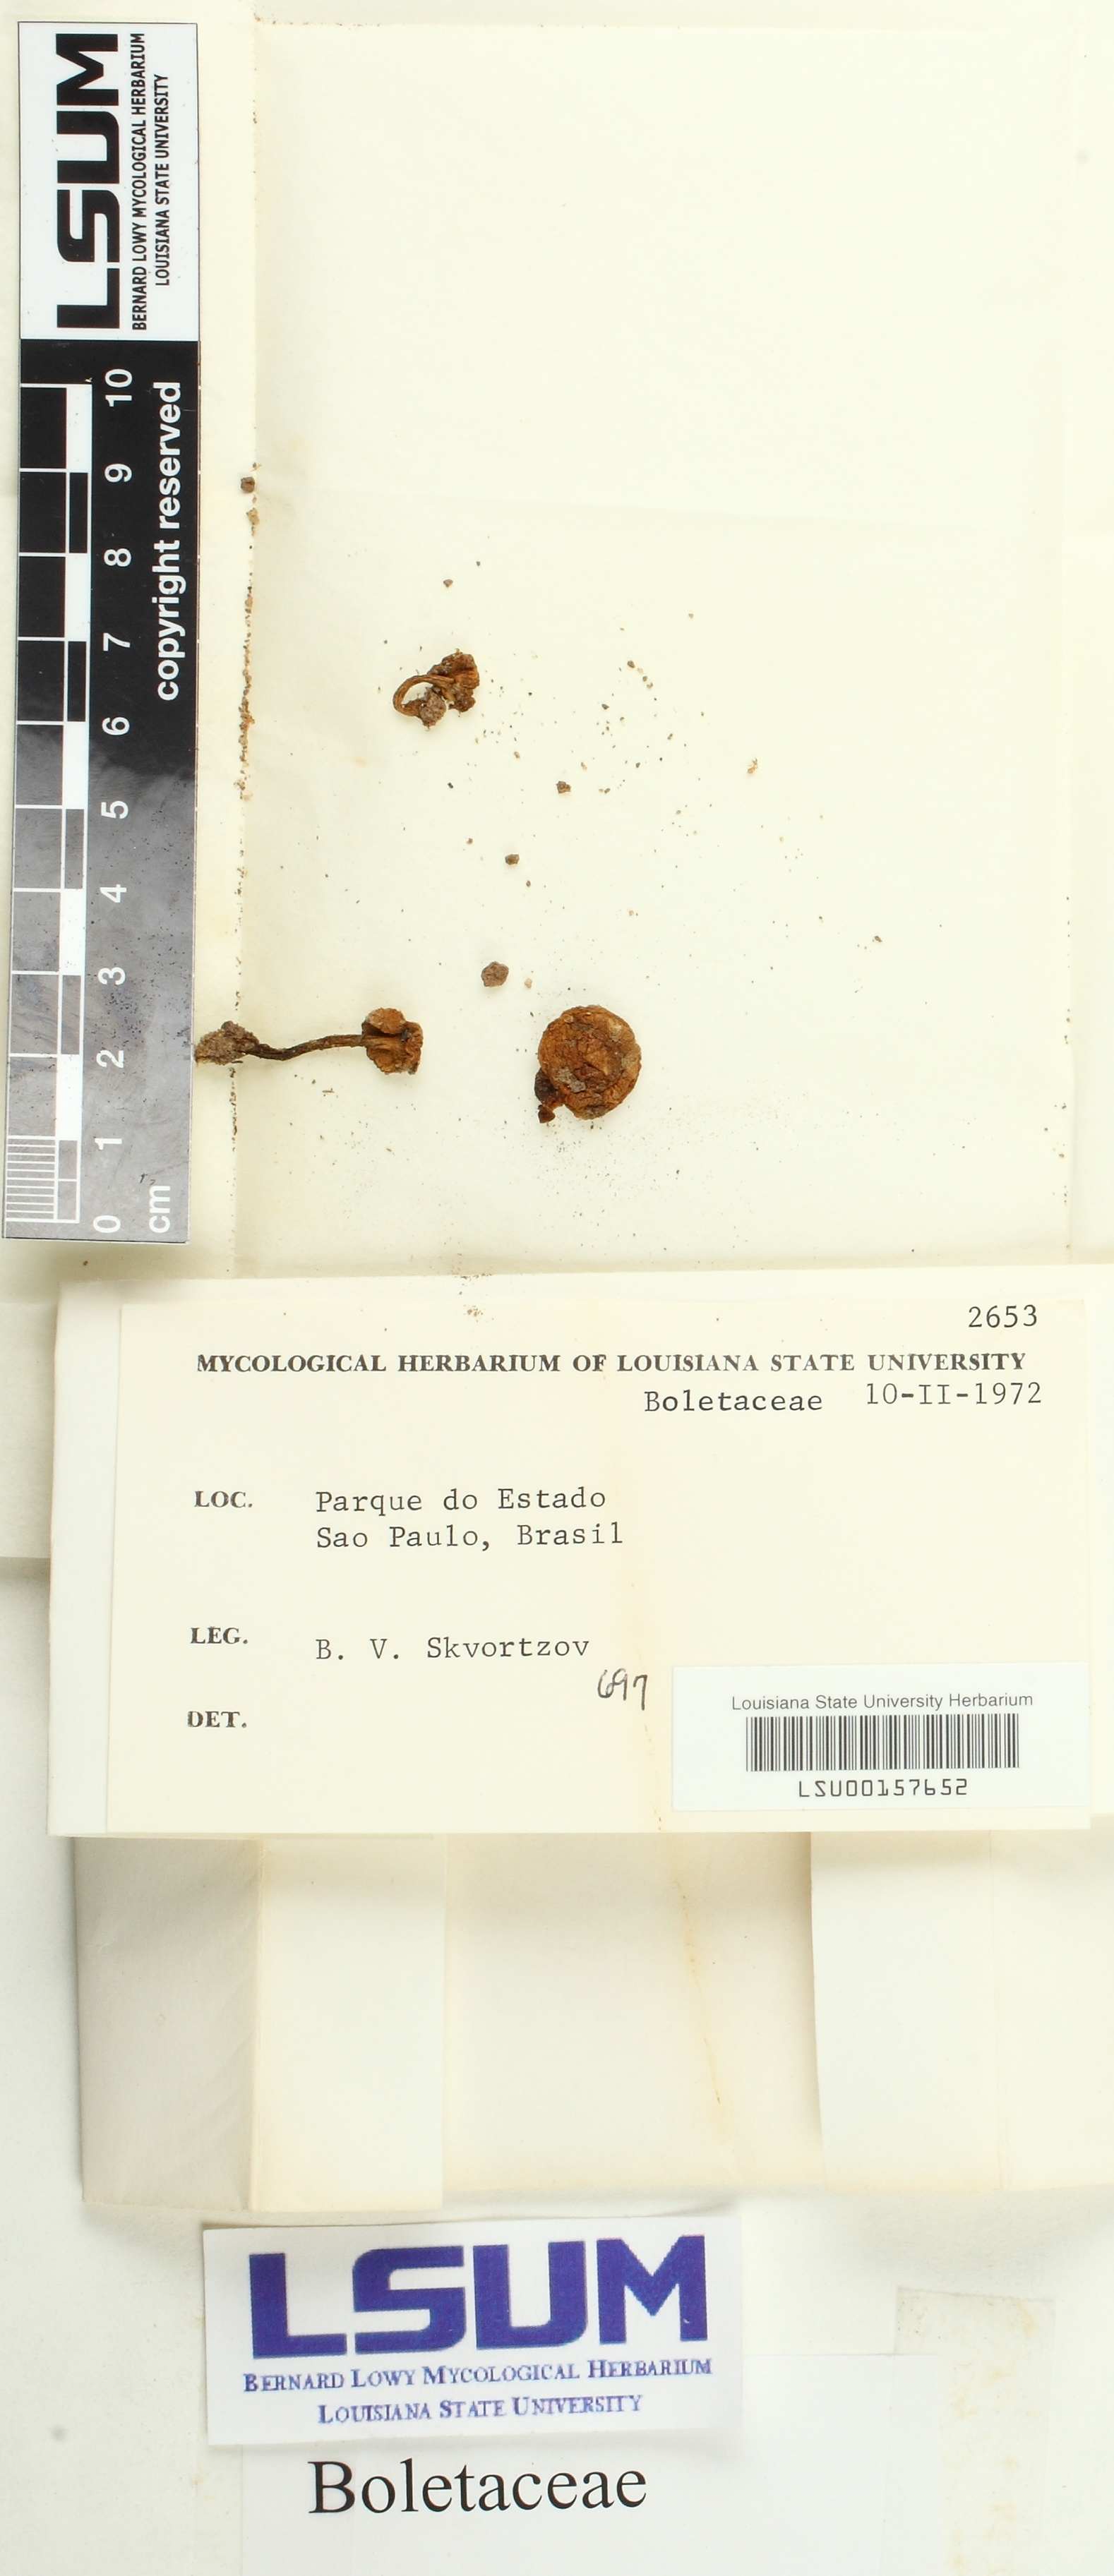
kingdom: Fungi
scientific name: Fungi
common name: Fungi
